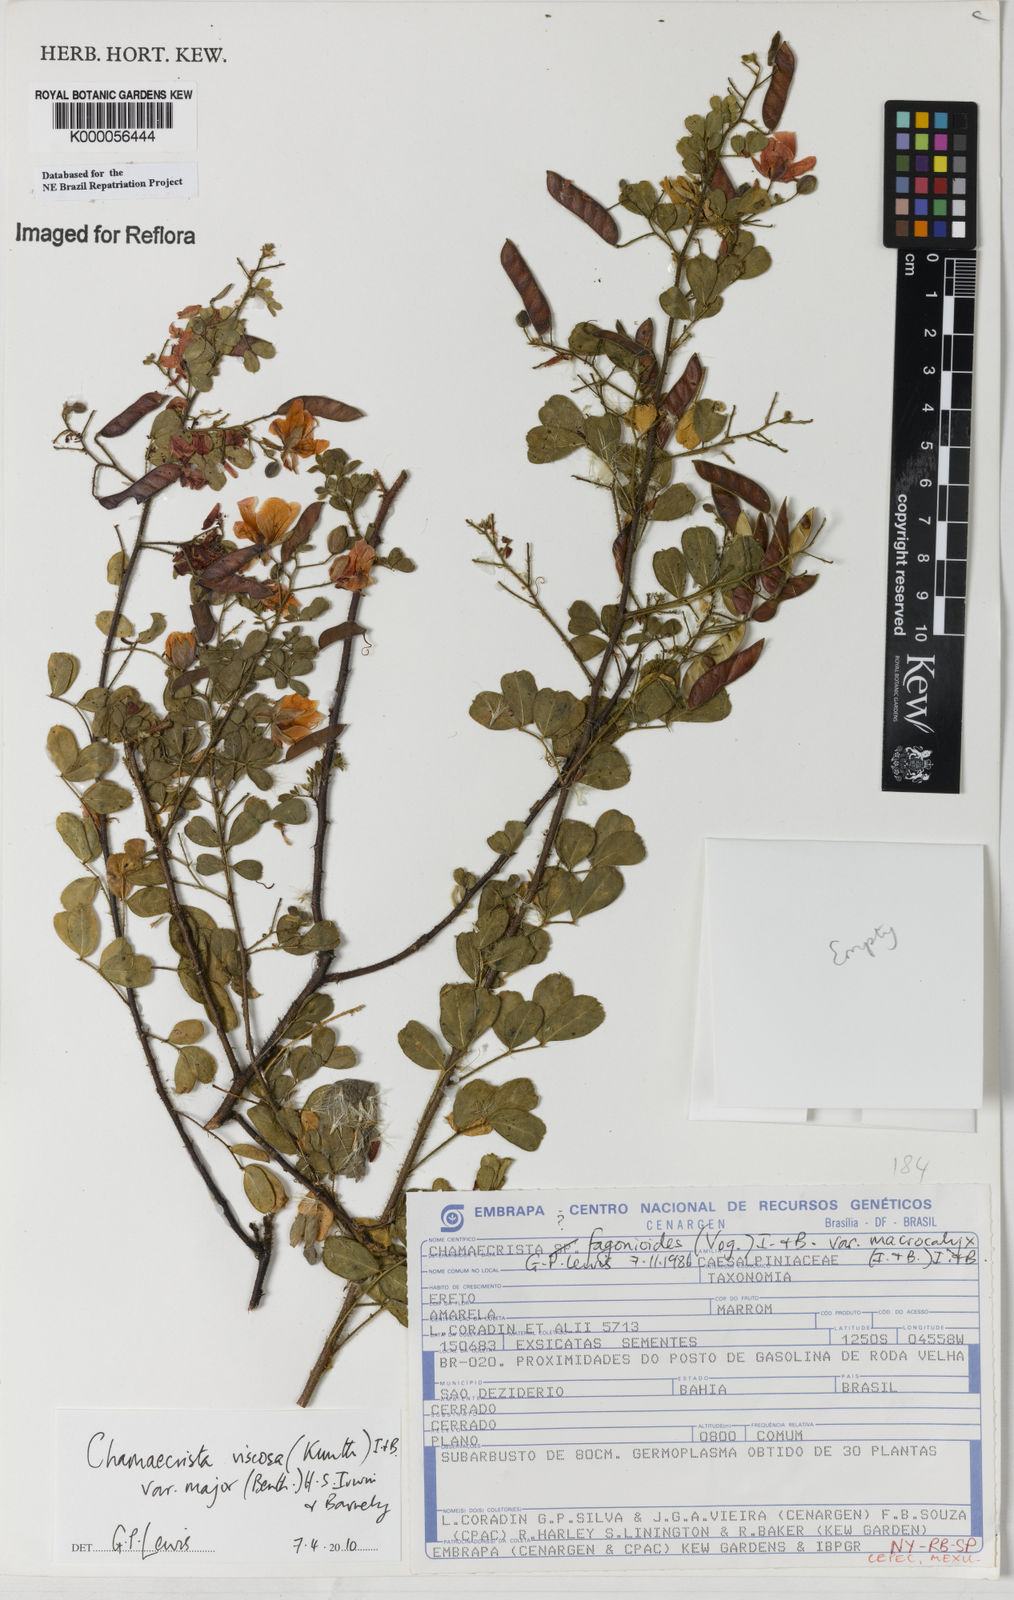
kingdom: Plantae
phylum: Tracheophyta
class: Magnoliopsida
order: Fabales
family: Fabaceae
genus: Chamaecrista
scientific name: Chamaecrista fagonioides
